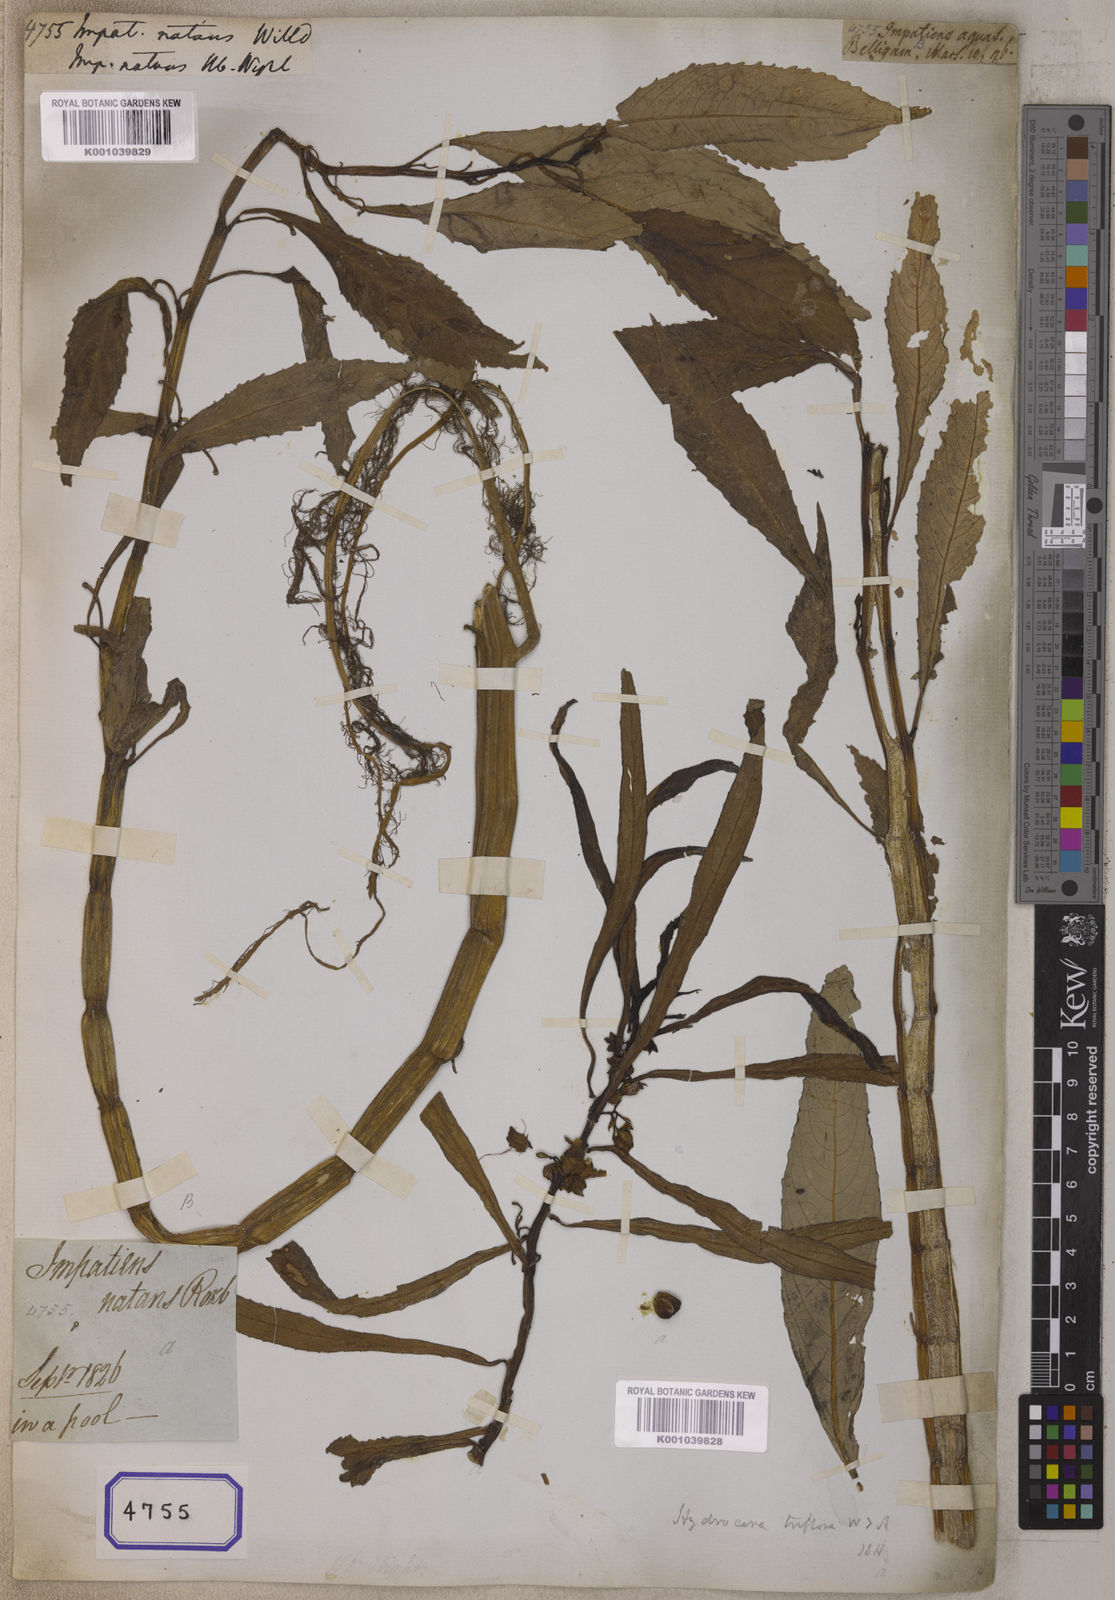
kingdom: Plantae
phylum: Tracheophyta
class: Magnoliopsida
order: Ericales
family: Balsaminaceae
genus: Hydrocera
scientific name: Hydrocera triflora
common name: Marsh henna
